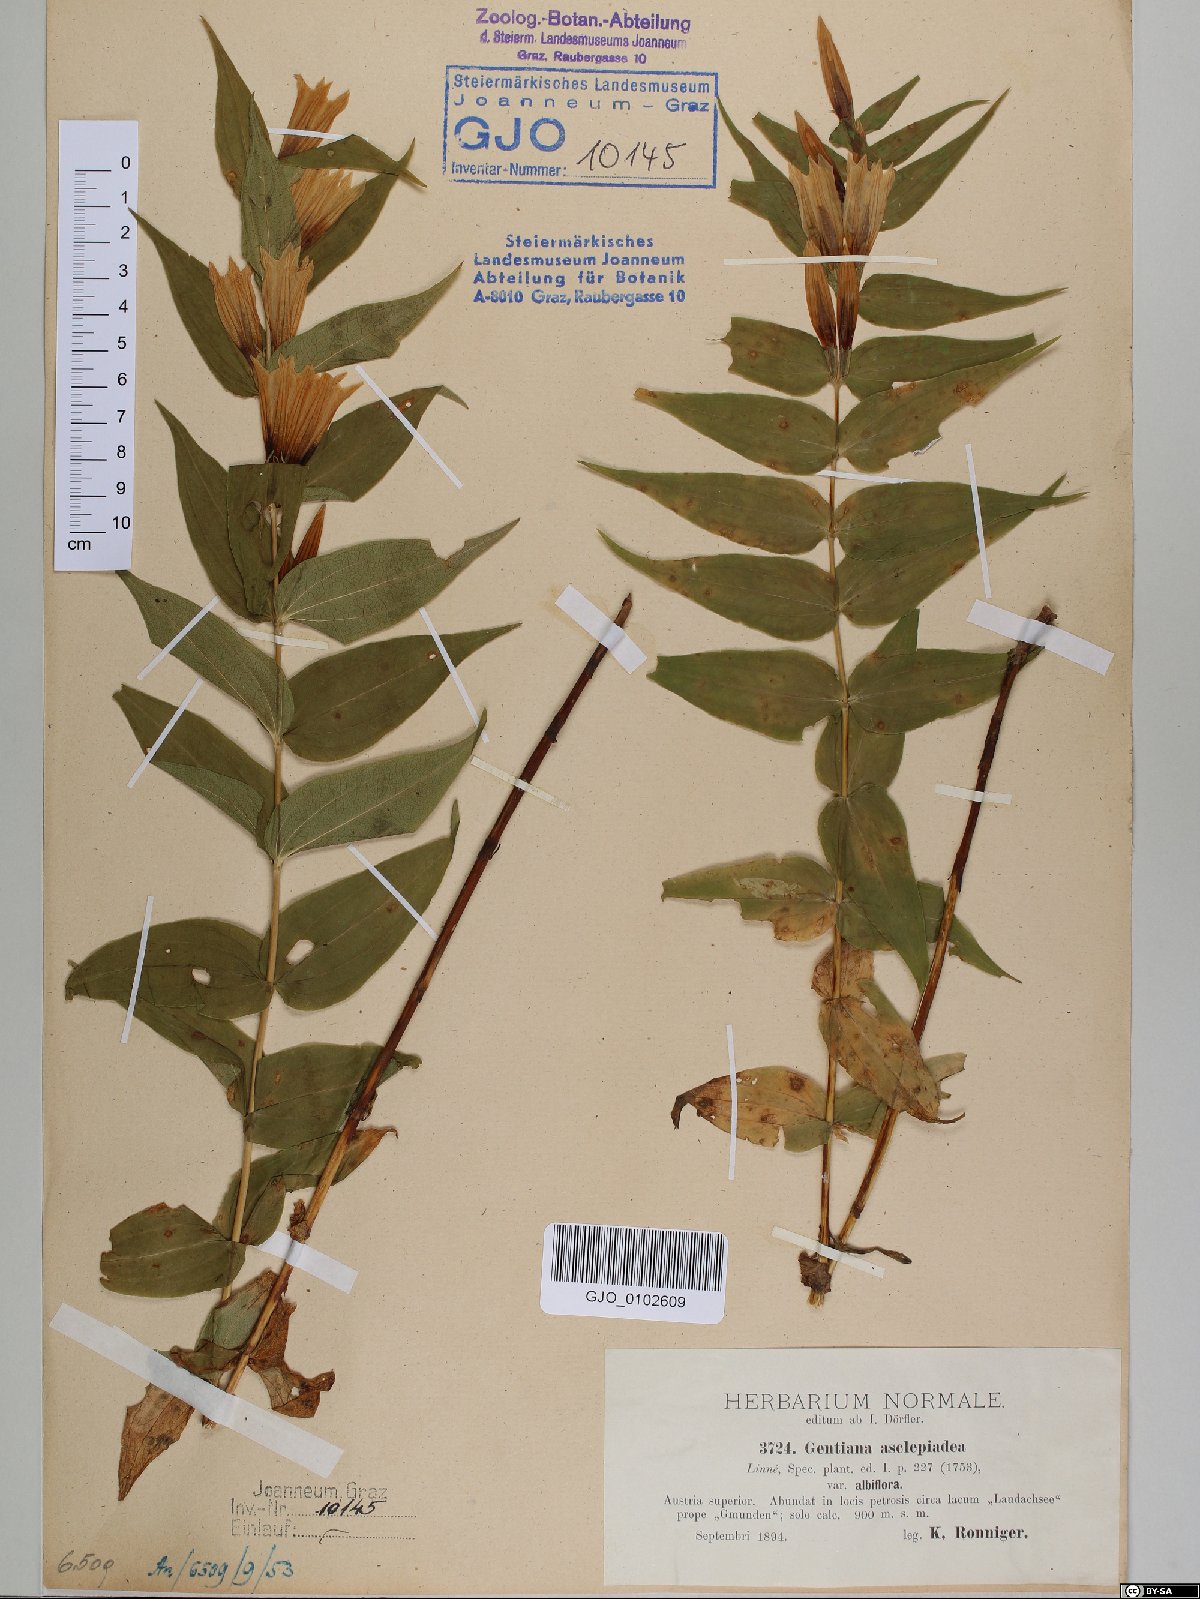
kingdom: Plantae
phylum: Tracheophyta
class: Magnoliopsida
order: Gentianales
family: Gentianaceae
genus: Gentiana
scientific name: Gentiana asclepiadea
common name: Willow gentian
